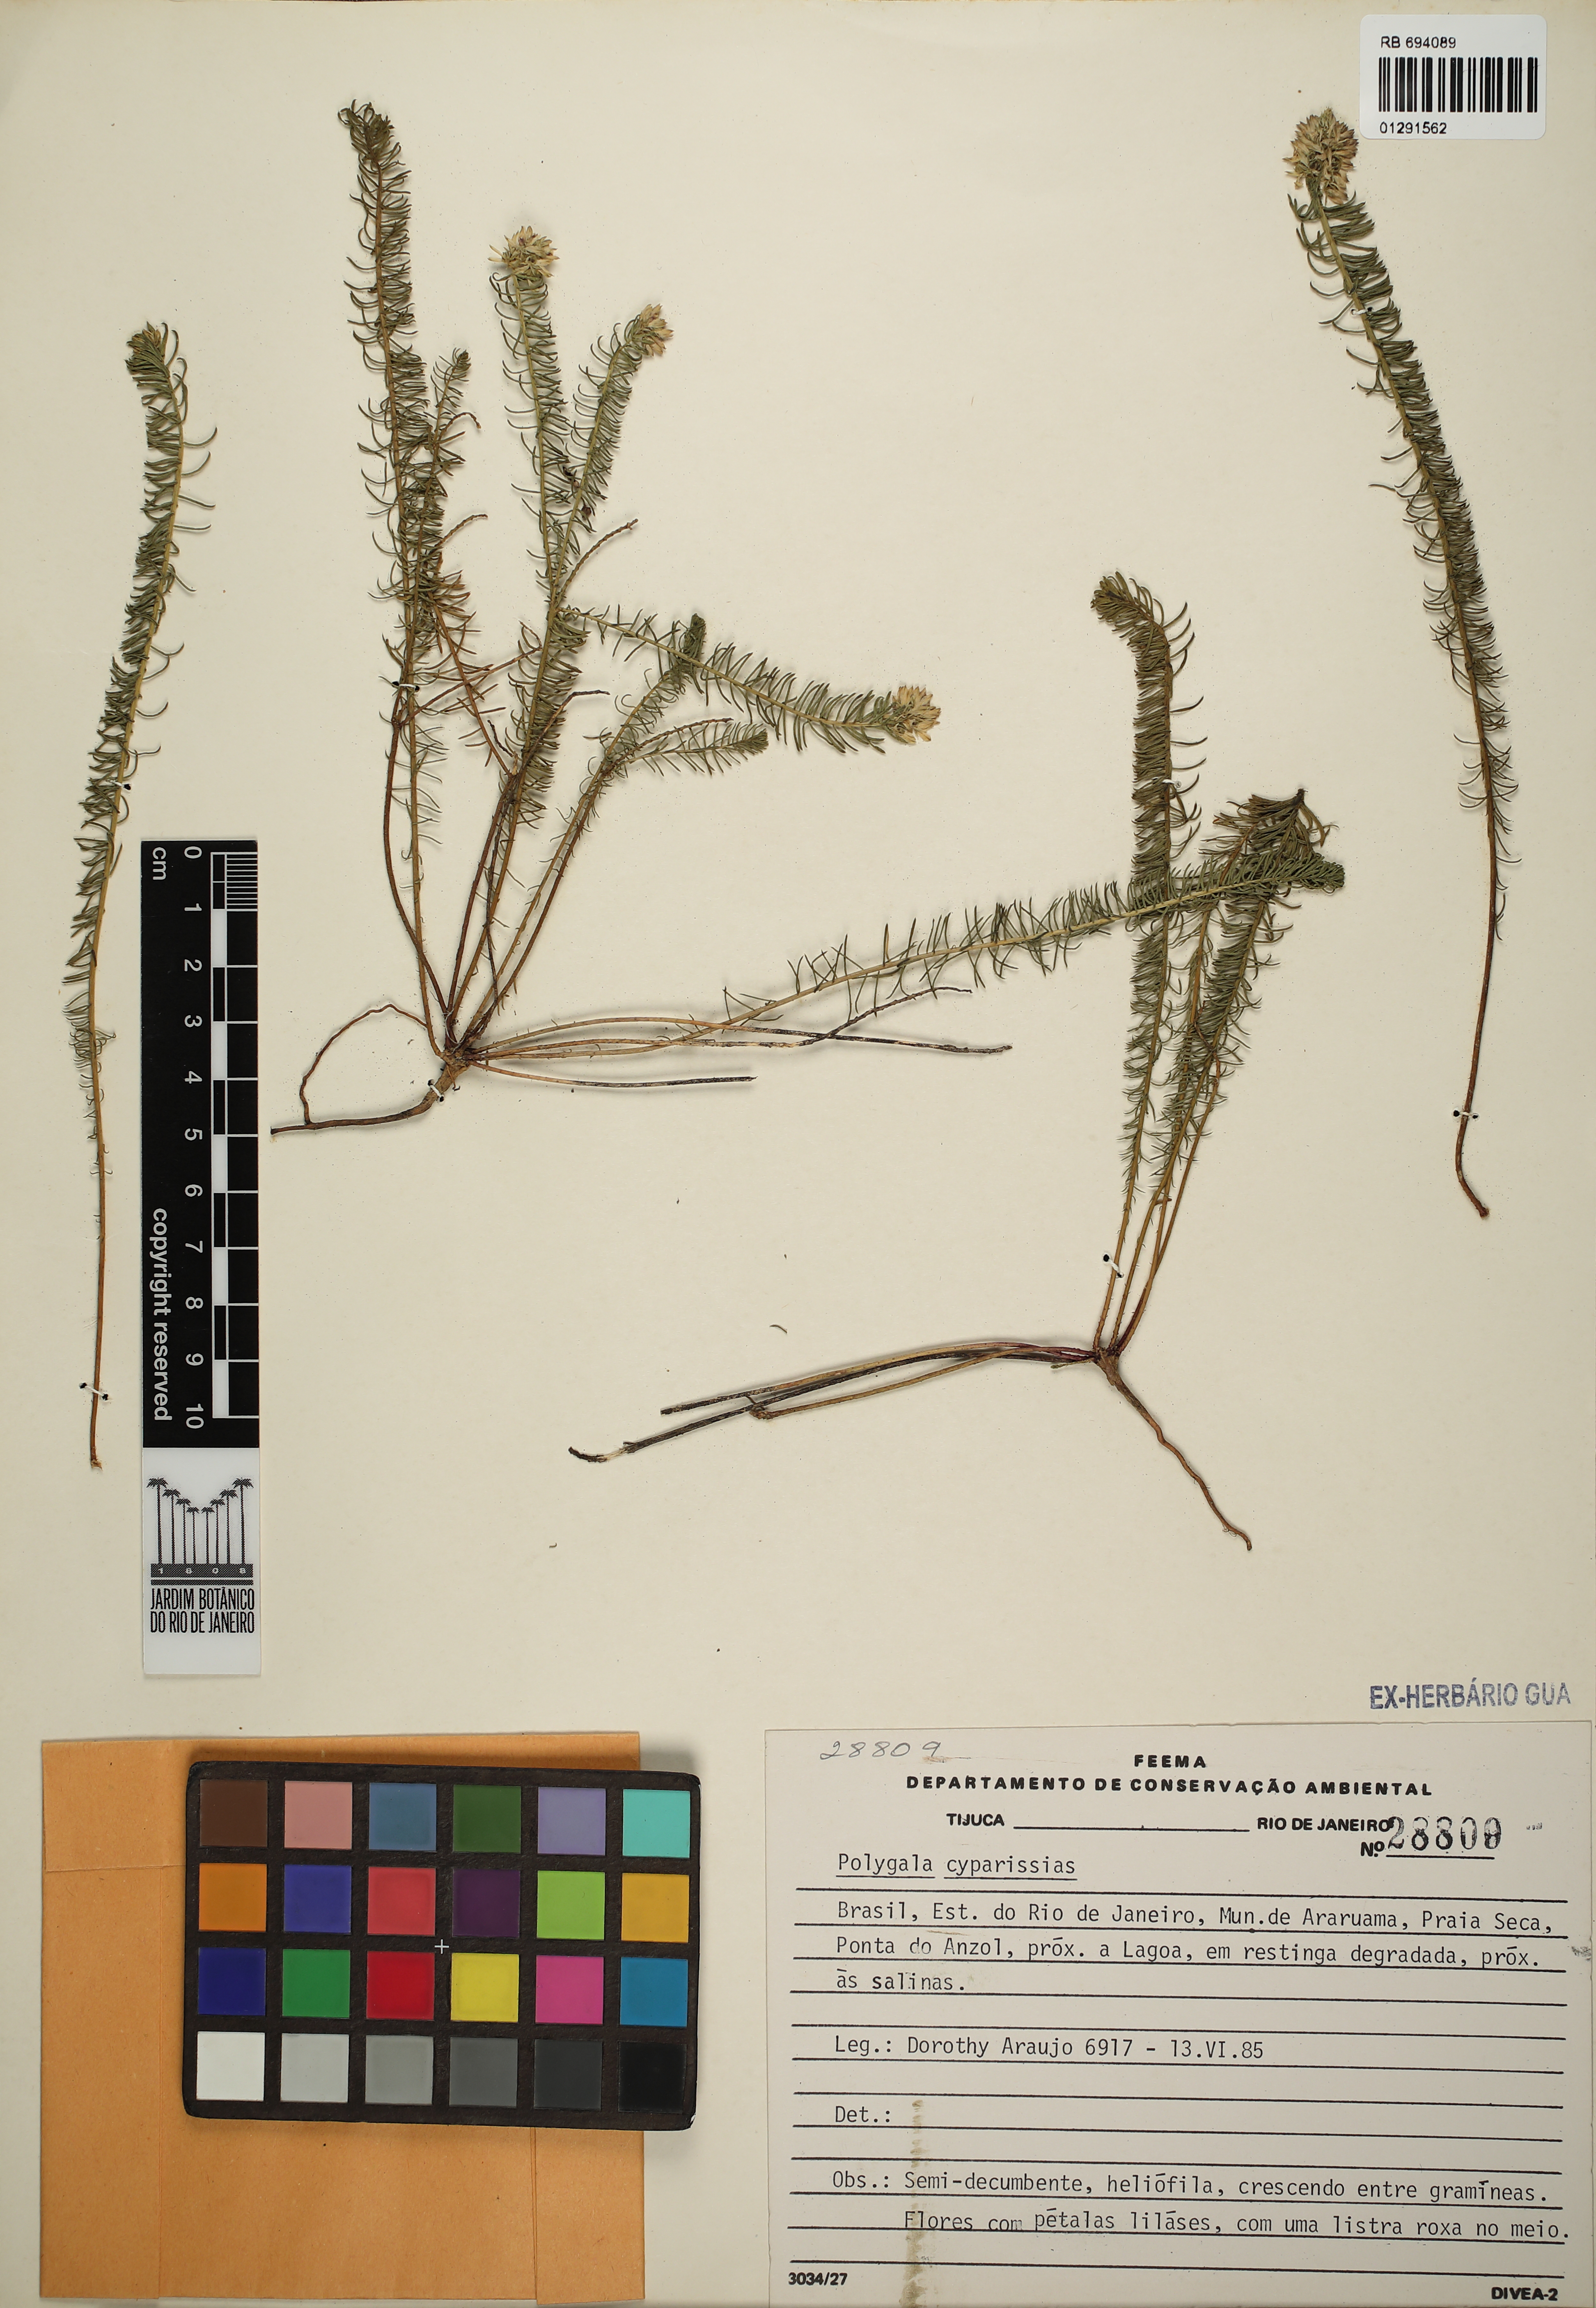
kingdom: Plantae
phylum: Tracheophyta
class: Magnoliopsida
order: Fabales
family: Polygalaceae
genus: Polygala
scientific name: Polygala cyparissias
